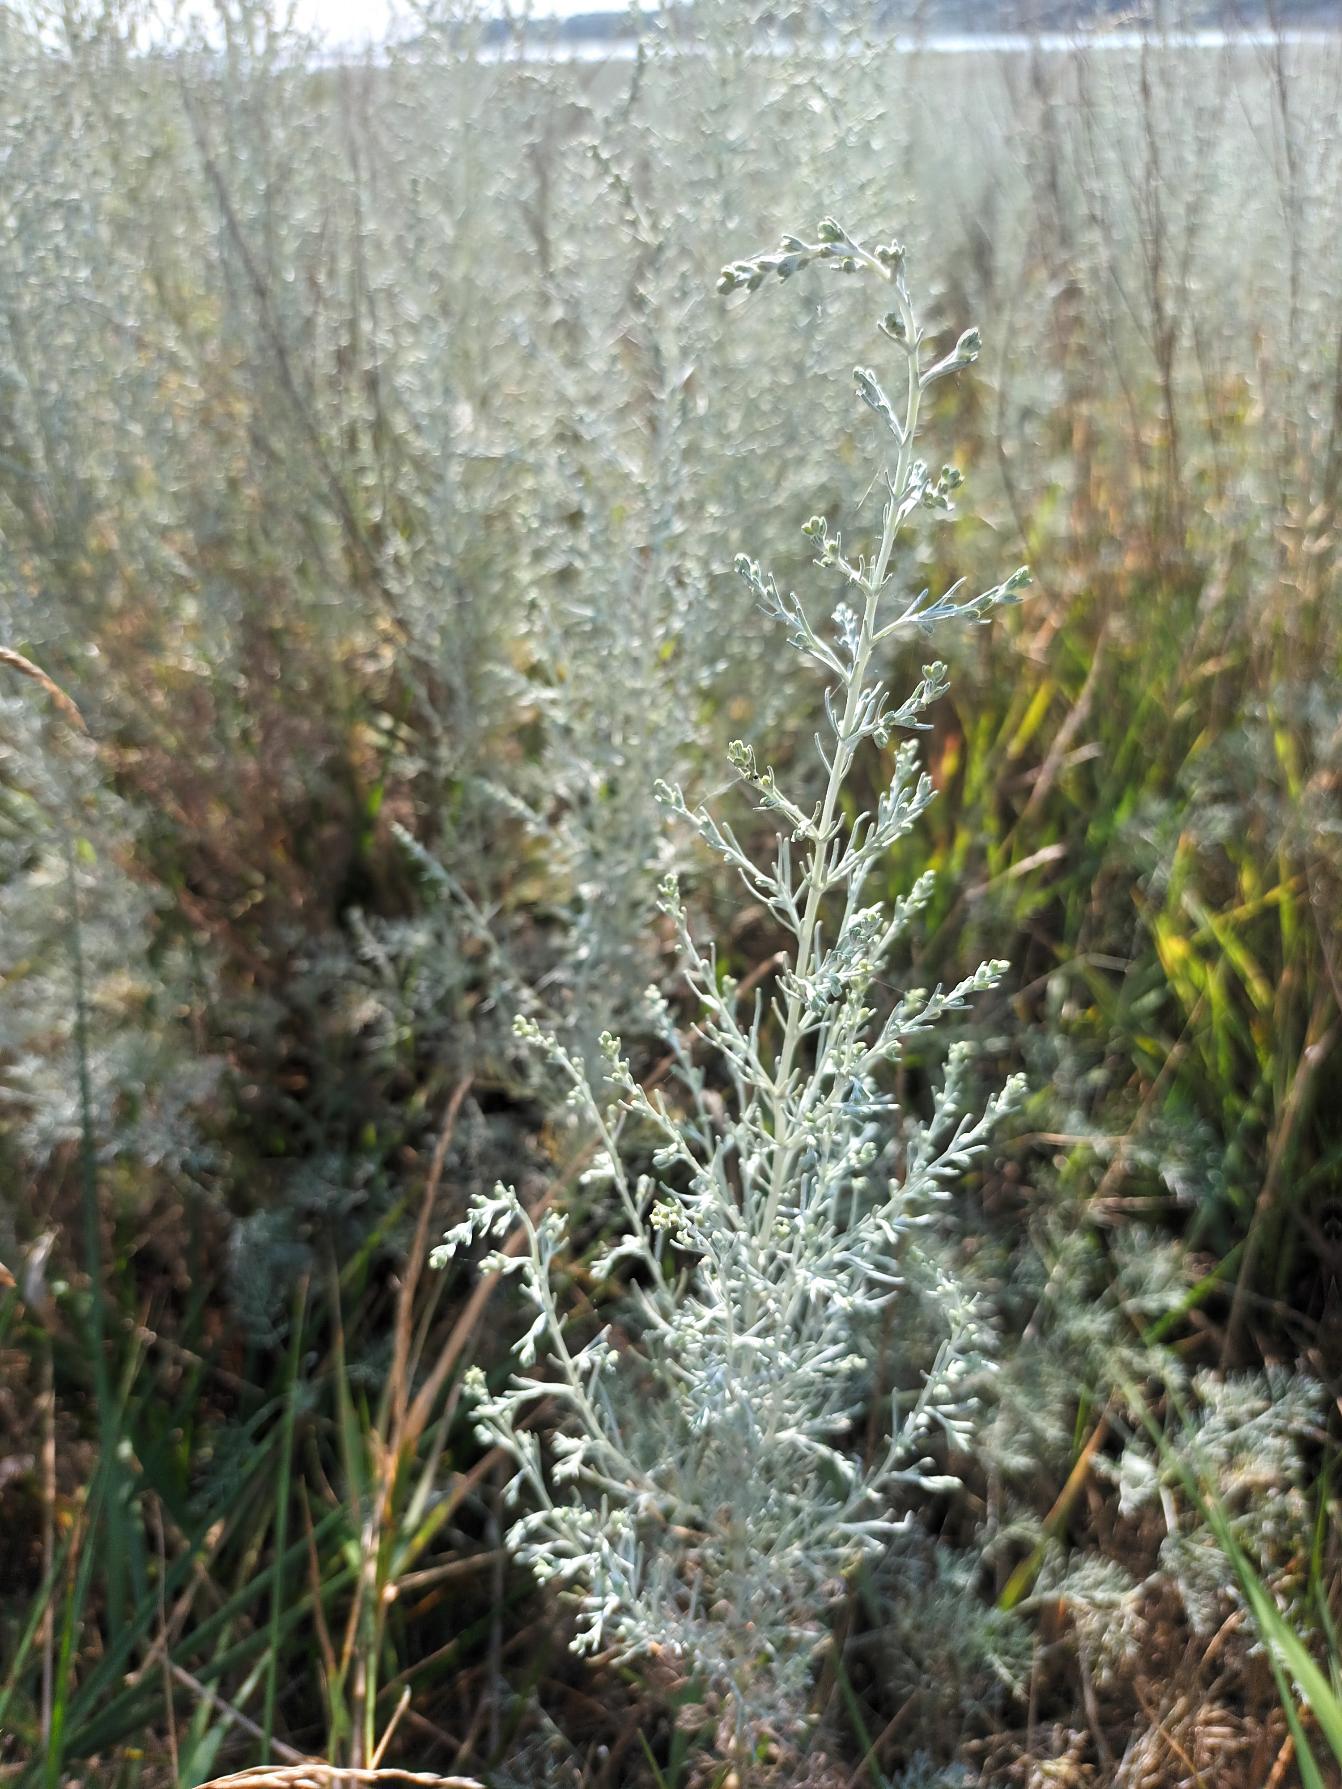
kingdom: Plantae
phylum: Tracheophyta
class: Magnoliopsida
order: Asterales
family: Asteraceae
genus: Artemisia
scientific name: Artemisia maritima
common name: Strandmalurt
